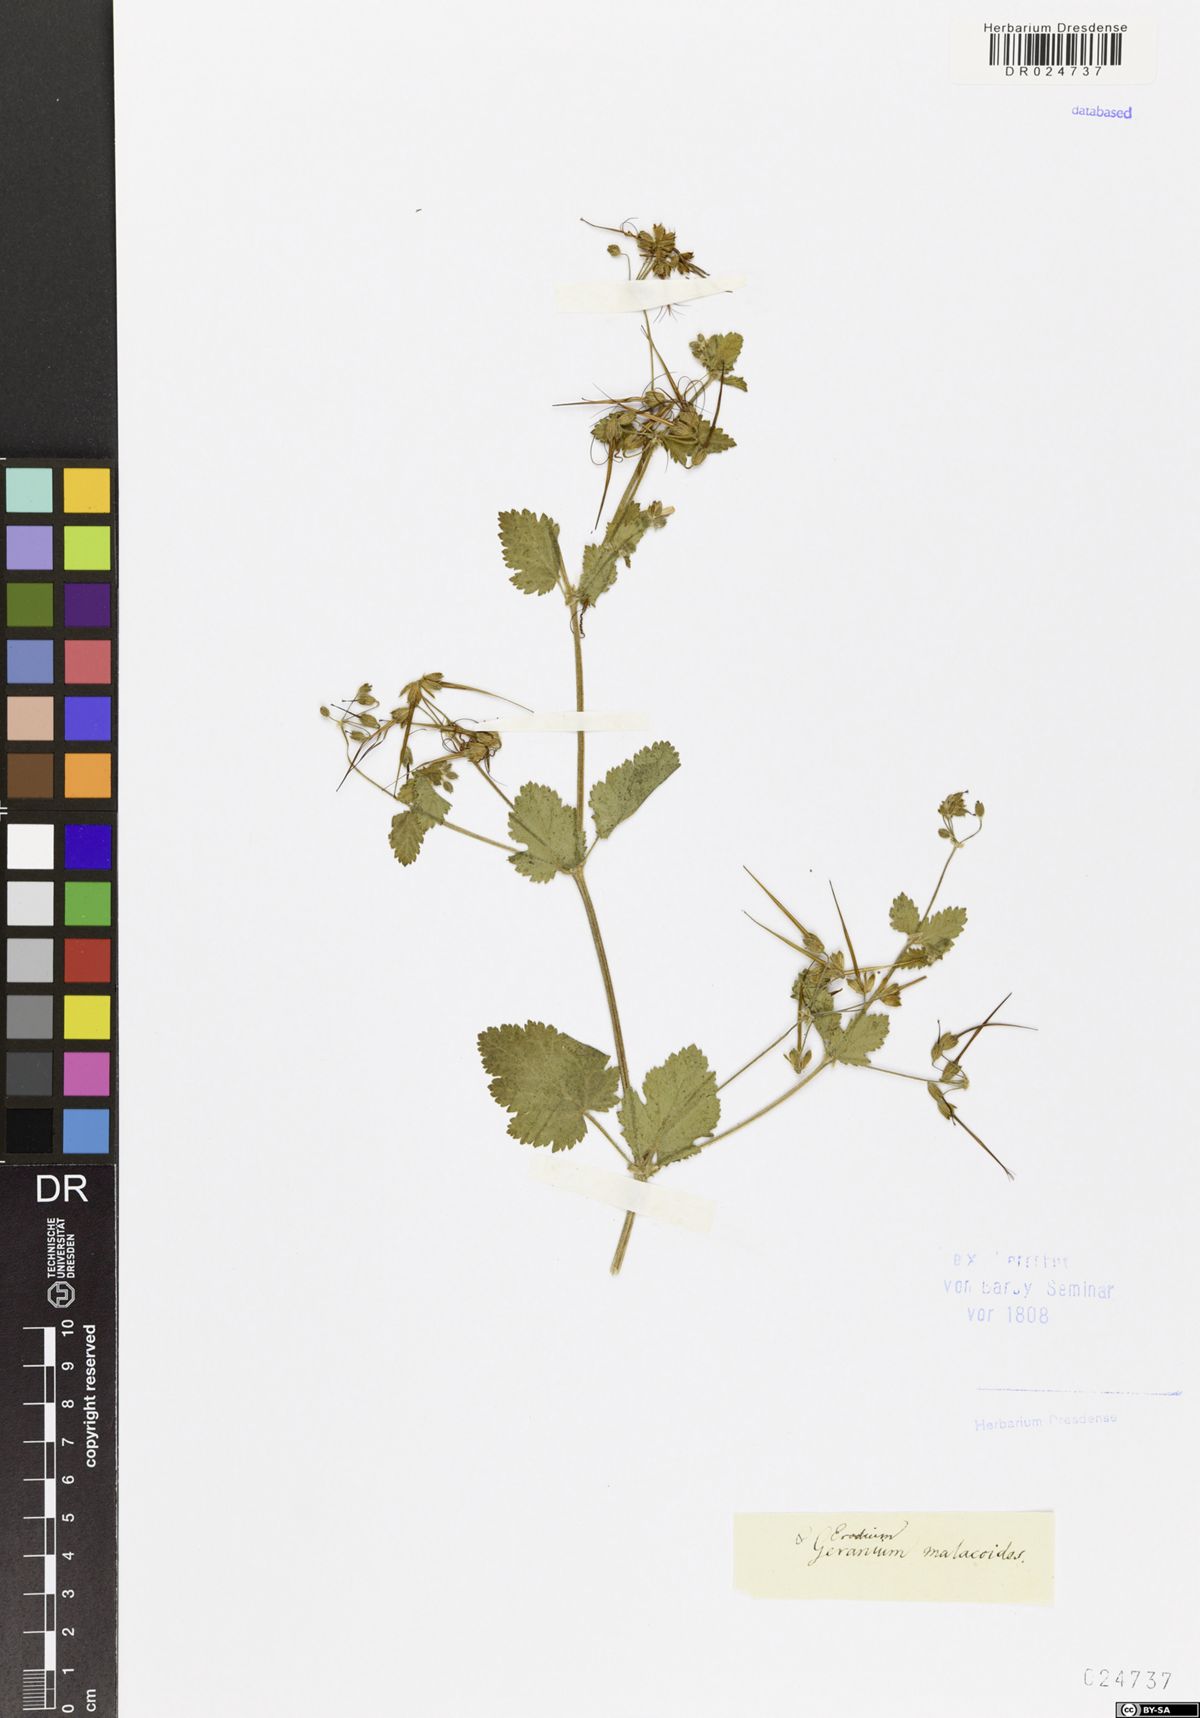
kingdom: Plantae
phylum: Tracheophyta
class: Magnoliopsida
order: Geraniales
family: Geraniaceae
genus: Erodium
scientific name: Erodium malacoides
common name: Soft stork's-bill
